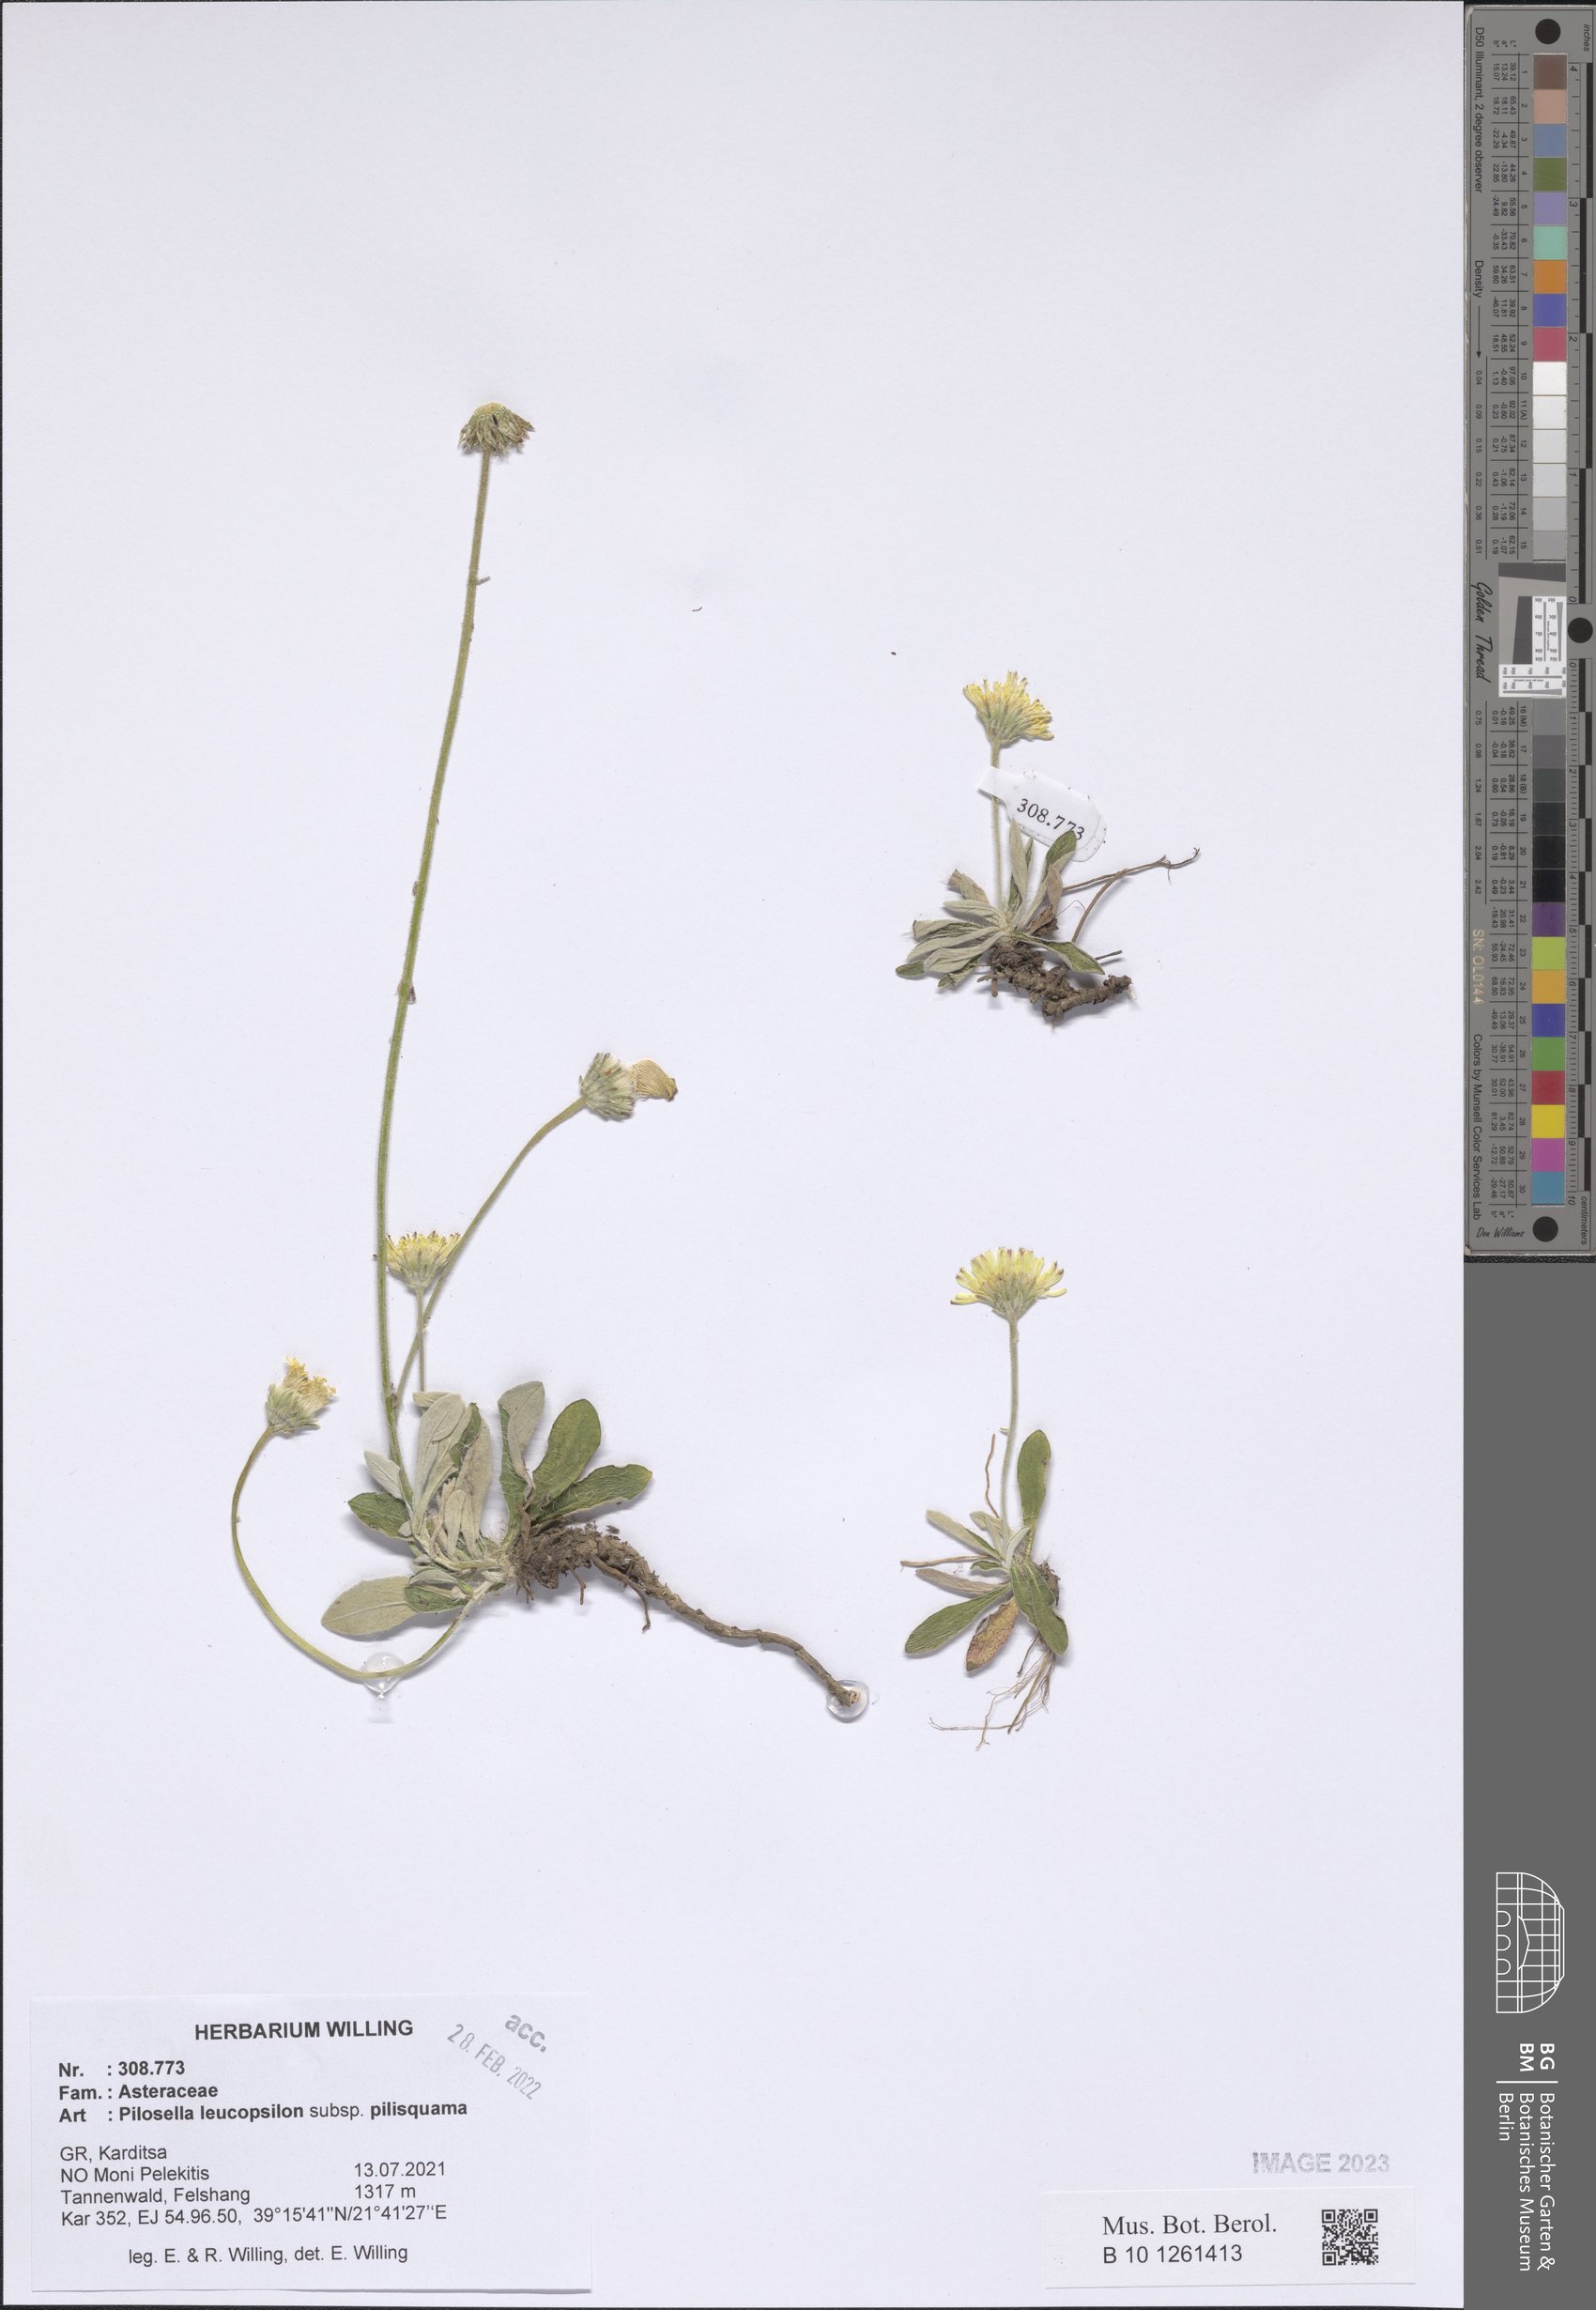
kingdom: Plantae
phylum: Tracheophyta
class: Magnoliopsida
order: Asterales
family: Asteraceae
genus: Pilosella
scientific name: Pilosella leucopsilon
